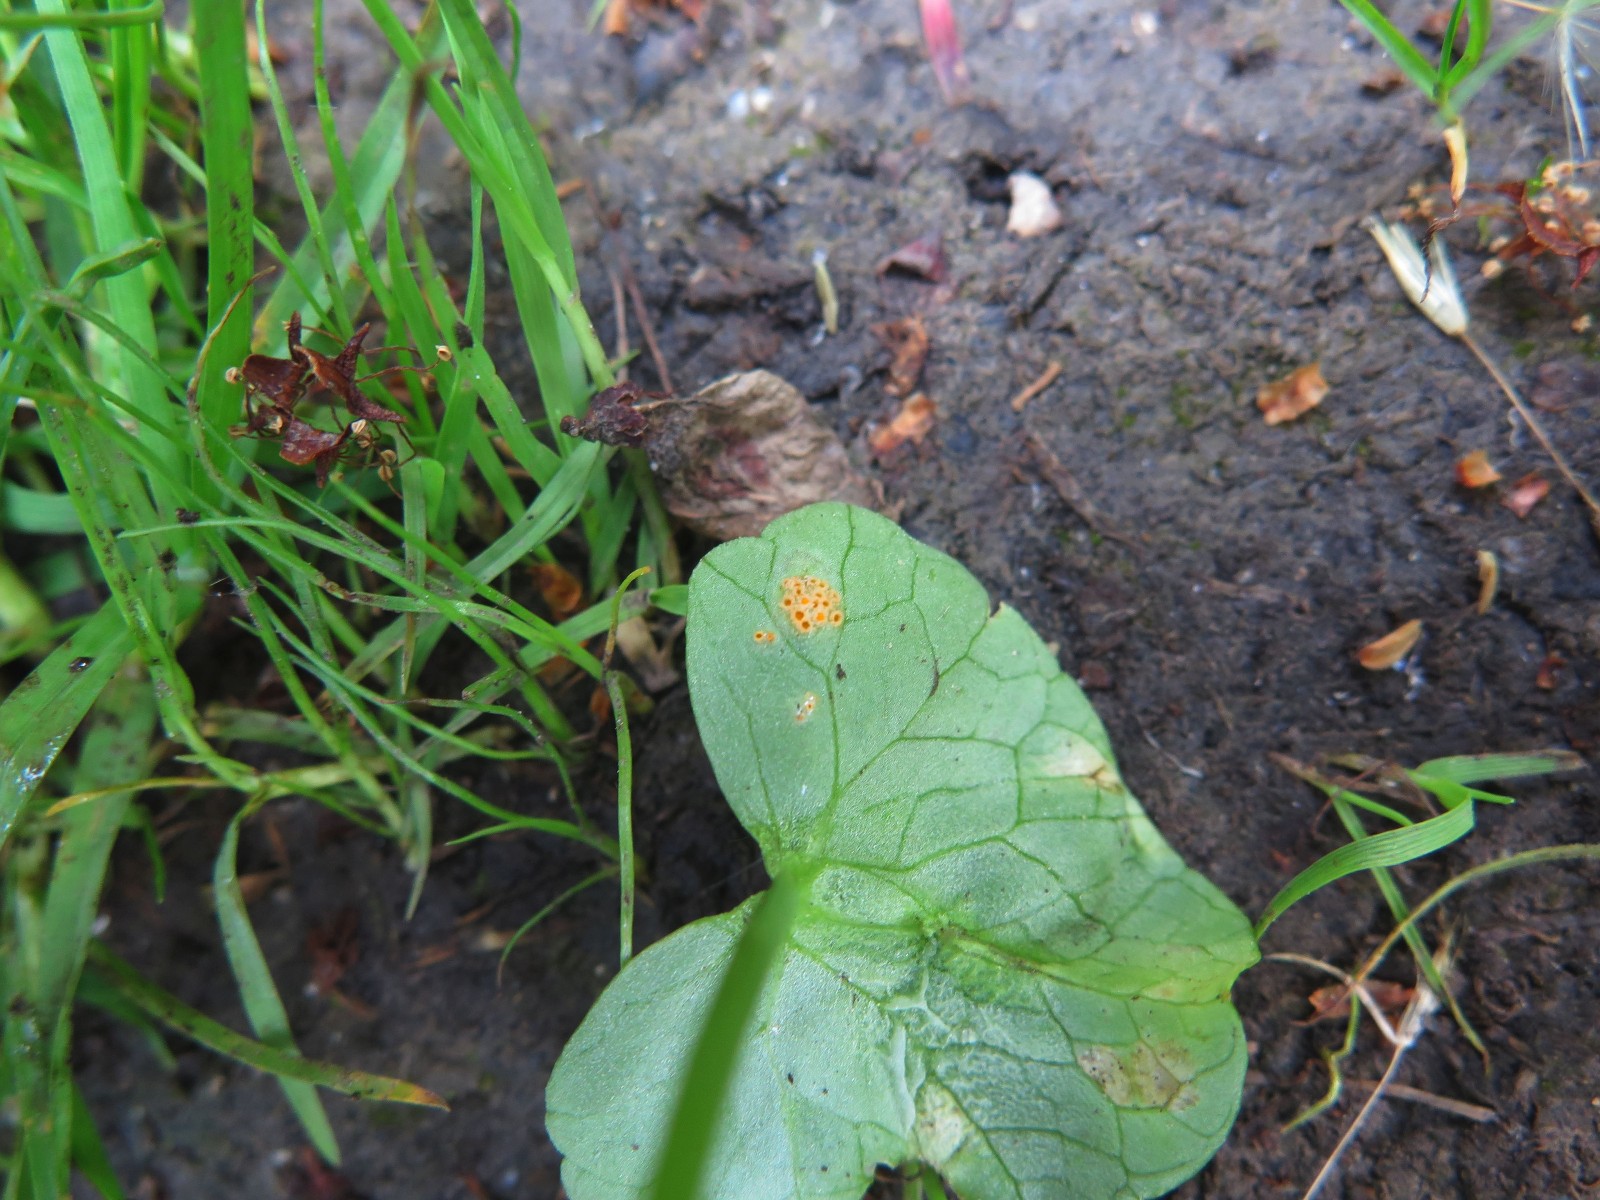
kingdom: Fungi
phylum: Basidiomycota
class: Pucciniomycetes
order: Pucciniales
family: Pucciniaceae
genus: Uromyces
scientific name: Uromyces dactylidis
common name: ranunkel-encellerust
